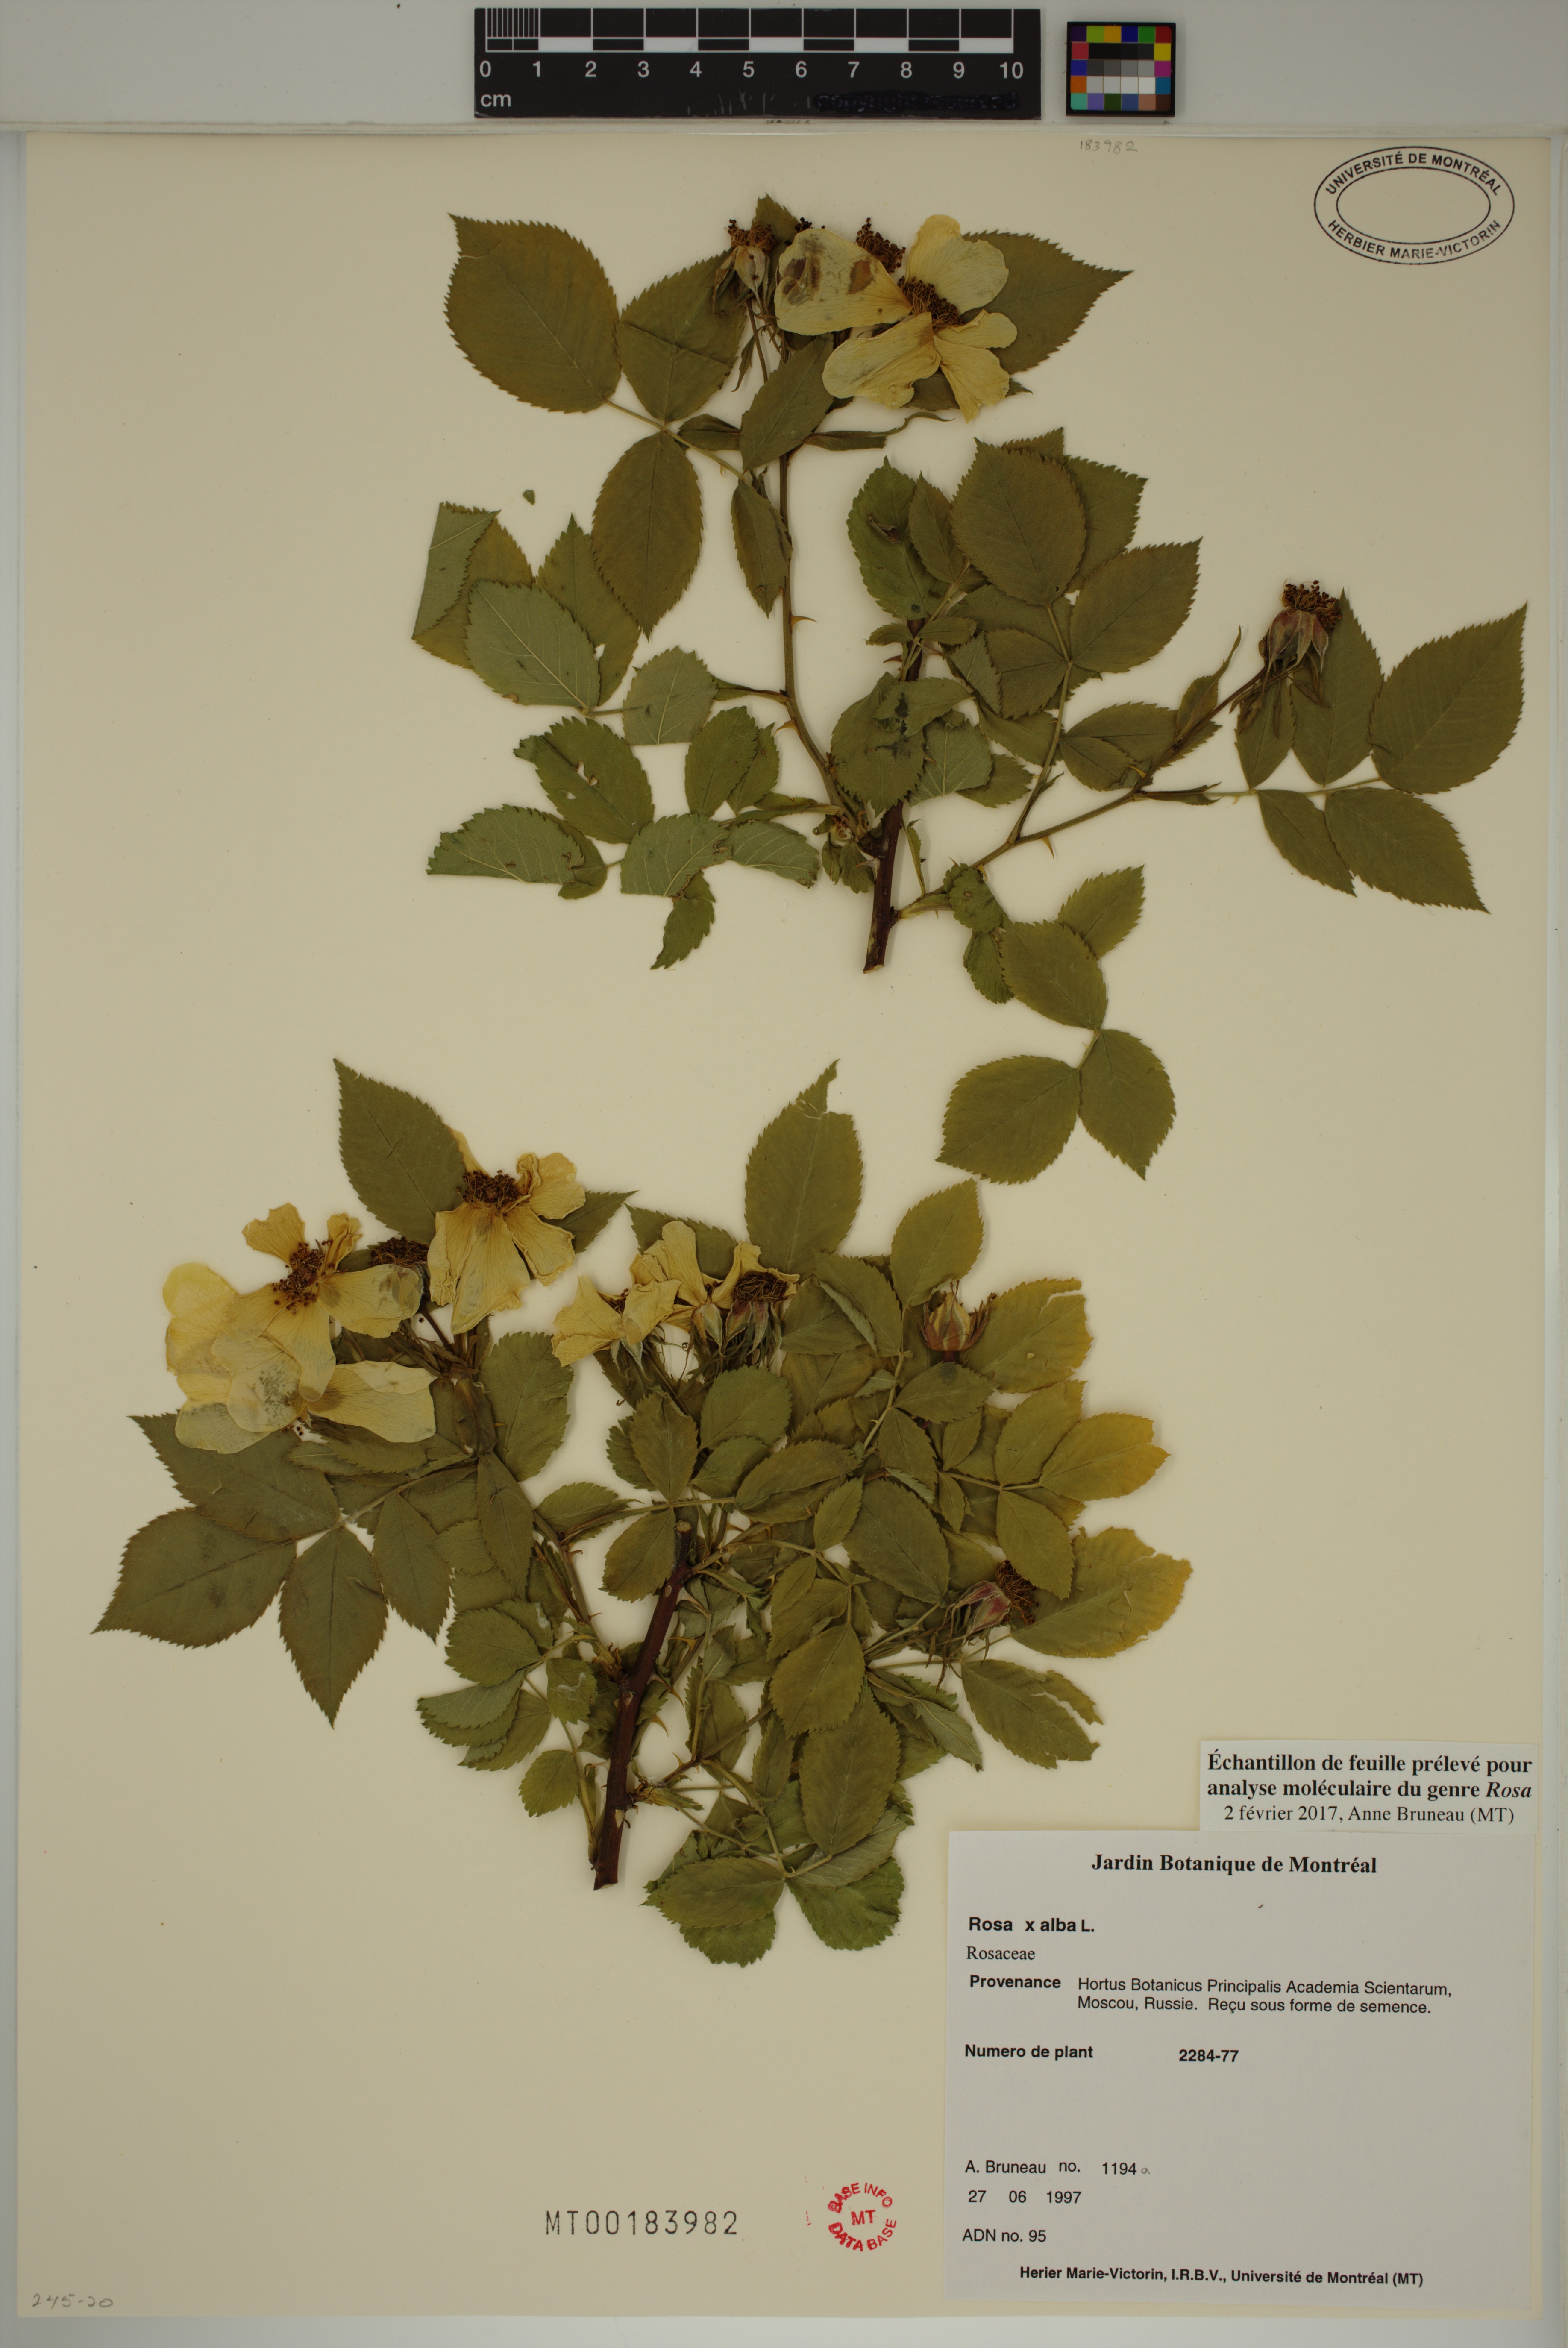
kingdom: Plantae
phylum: Tracheophyta
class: Magnoliopsida
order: Rosales
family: Rosaceae
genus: Rosa
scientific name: Rosa alba
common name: White rose
